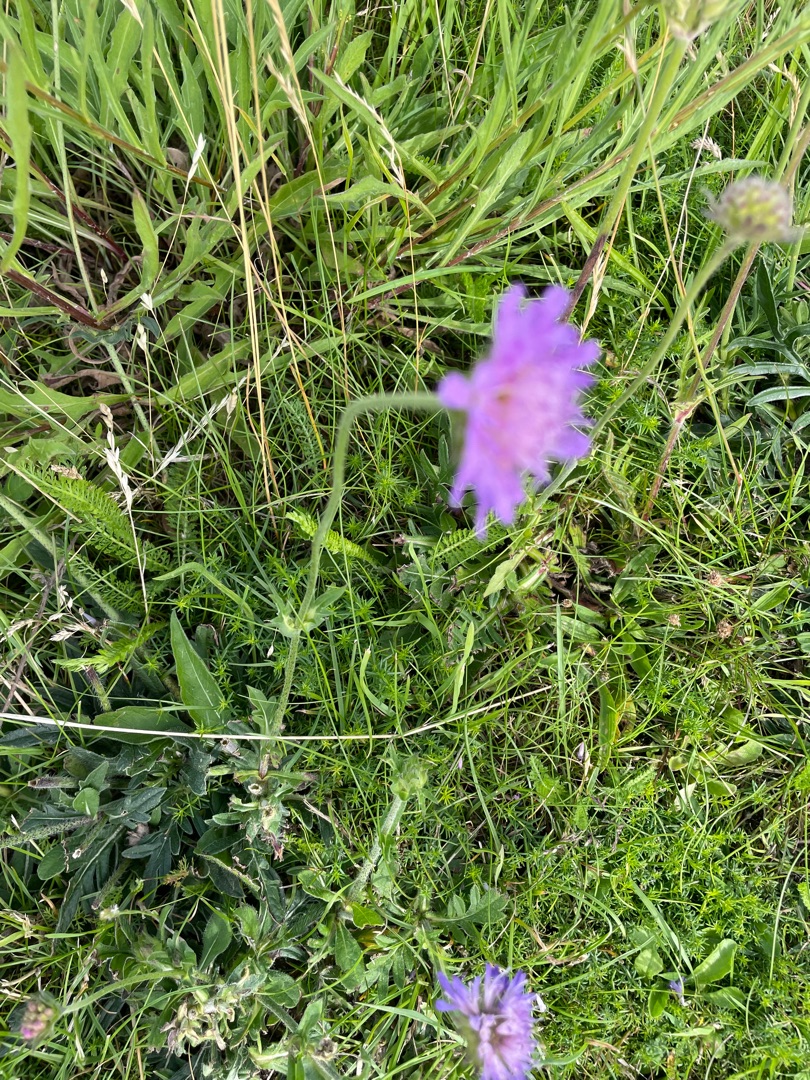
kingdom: Plantae
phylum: Tracheophyta
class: Magnoliopsida
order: Dipsacales
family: Caprifoliaceae
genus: Knautia
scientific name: Knautia arvensis
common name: Blåhat
